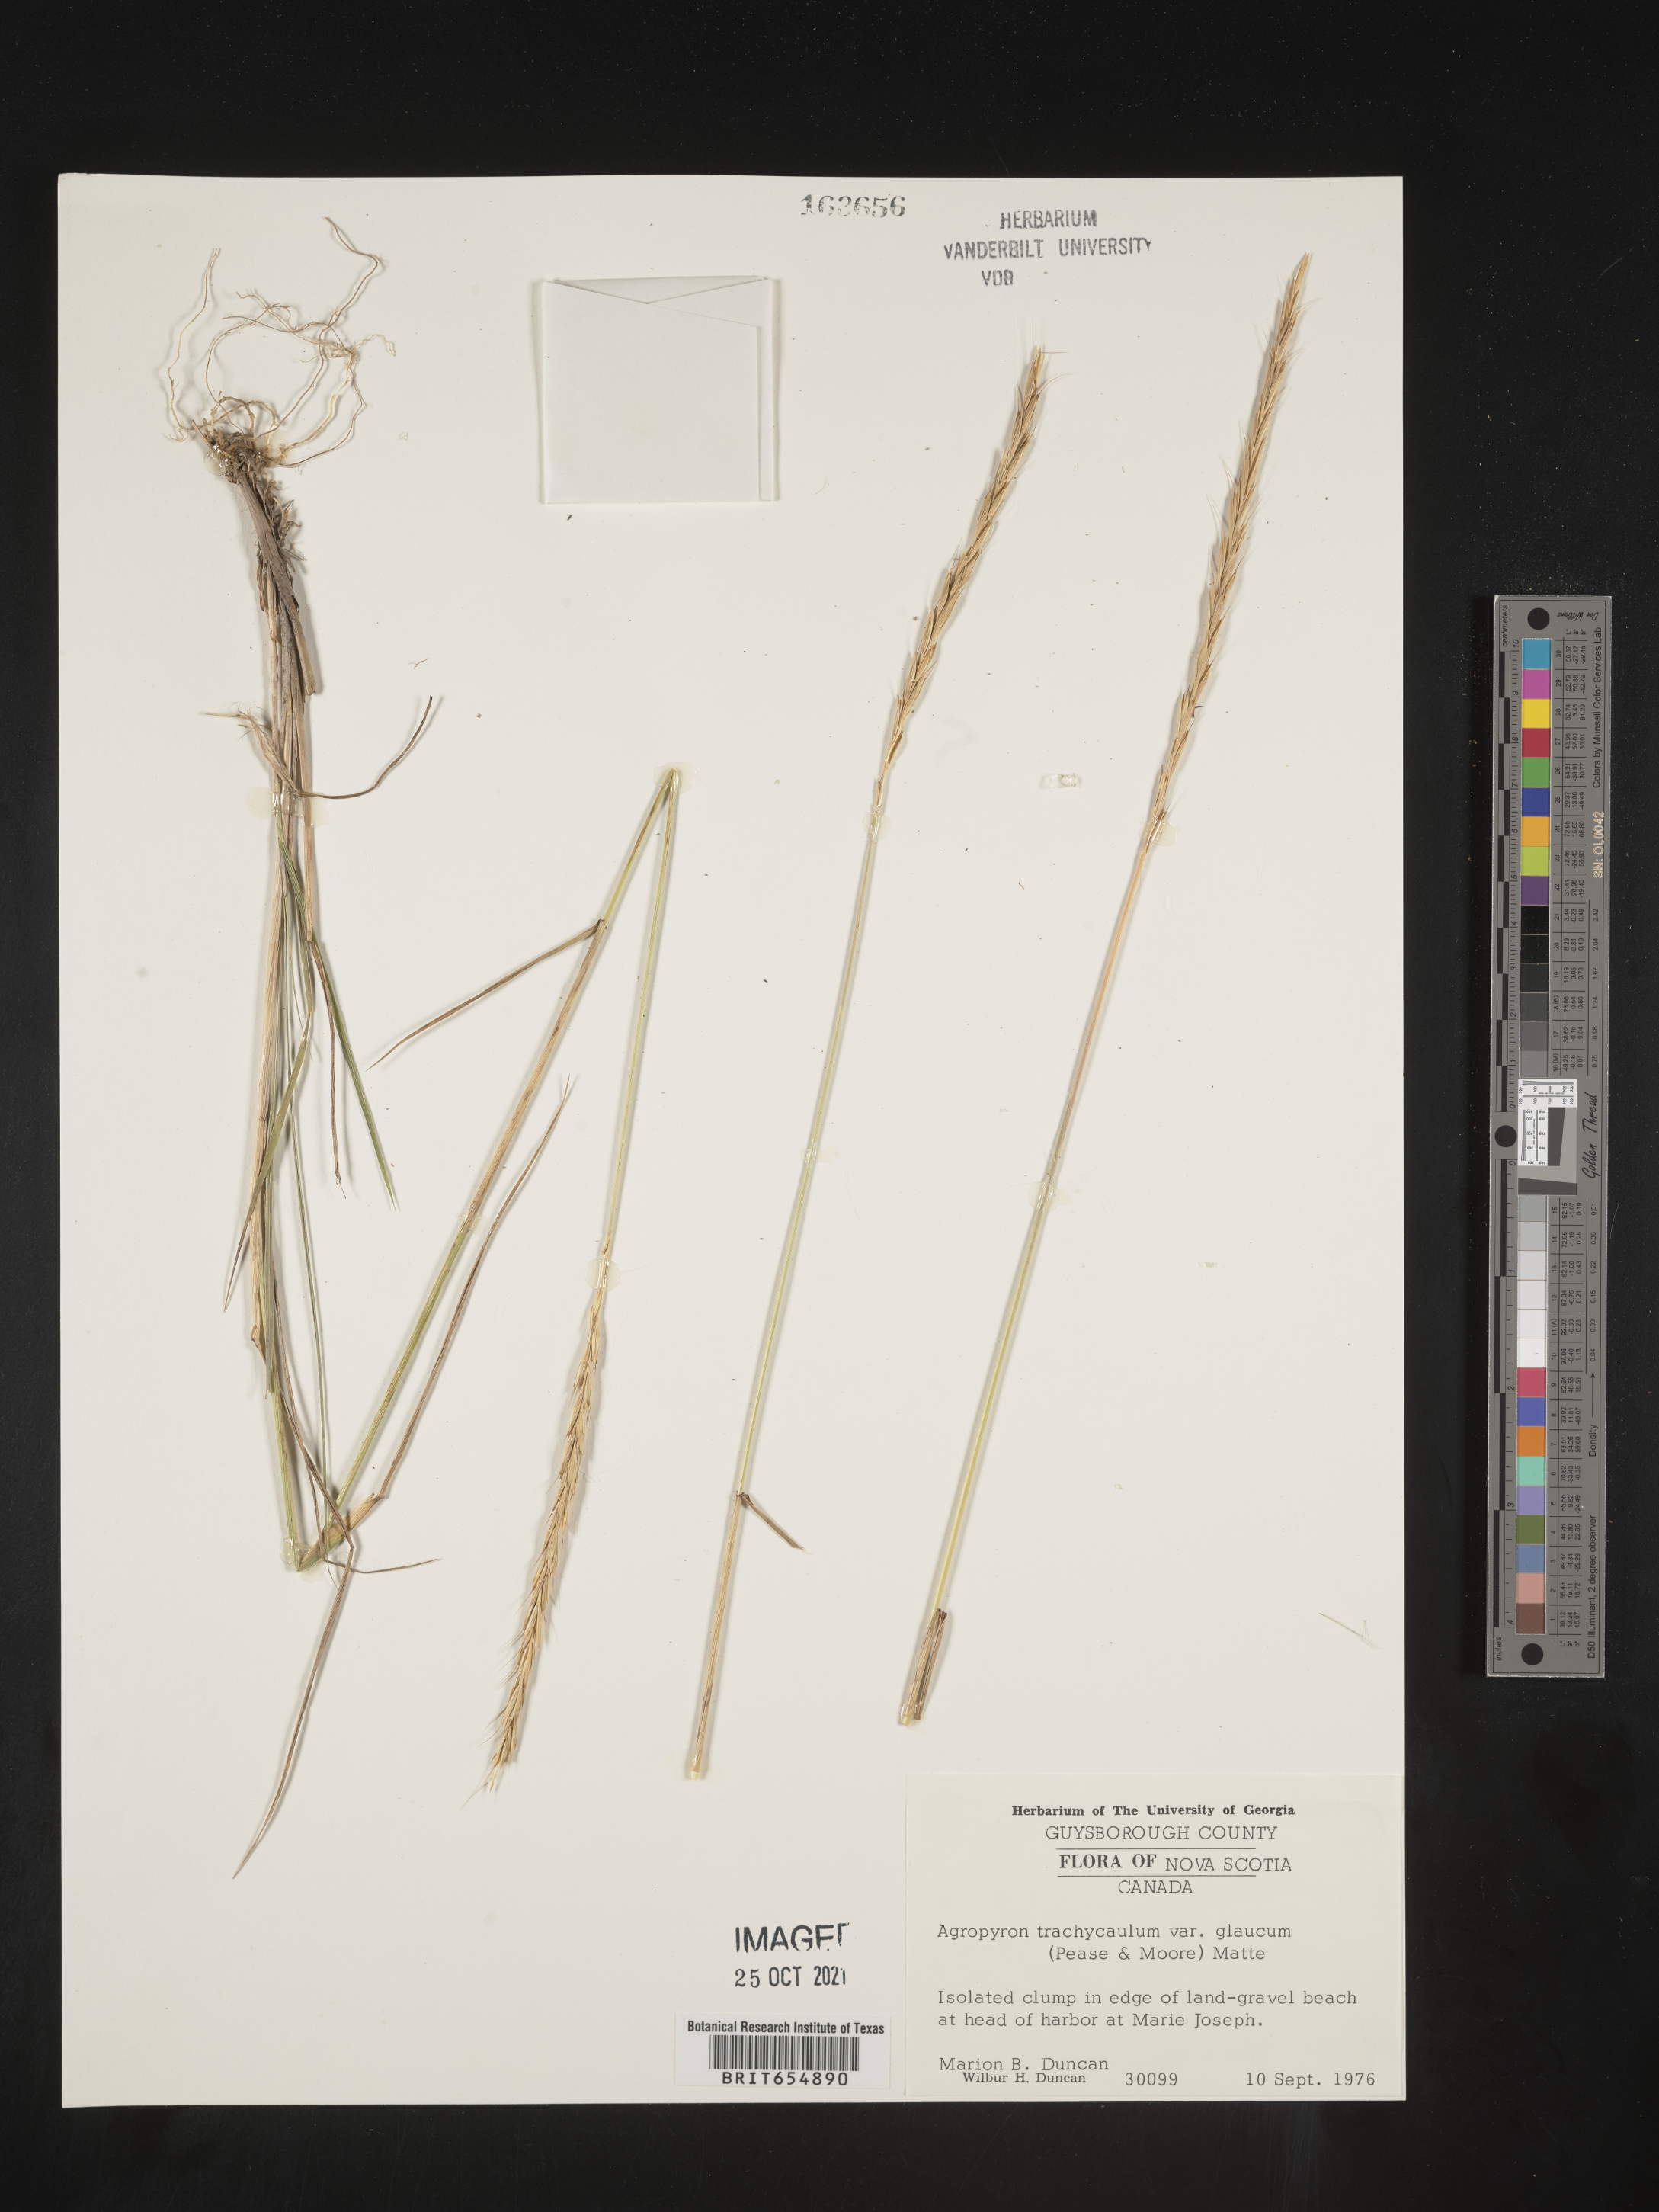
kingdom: Plantae
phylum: Tracheophyta
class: Liliopsida
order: Poales
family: Poaceae
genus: Agropyron
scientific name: Agropyron
